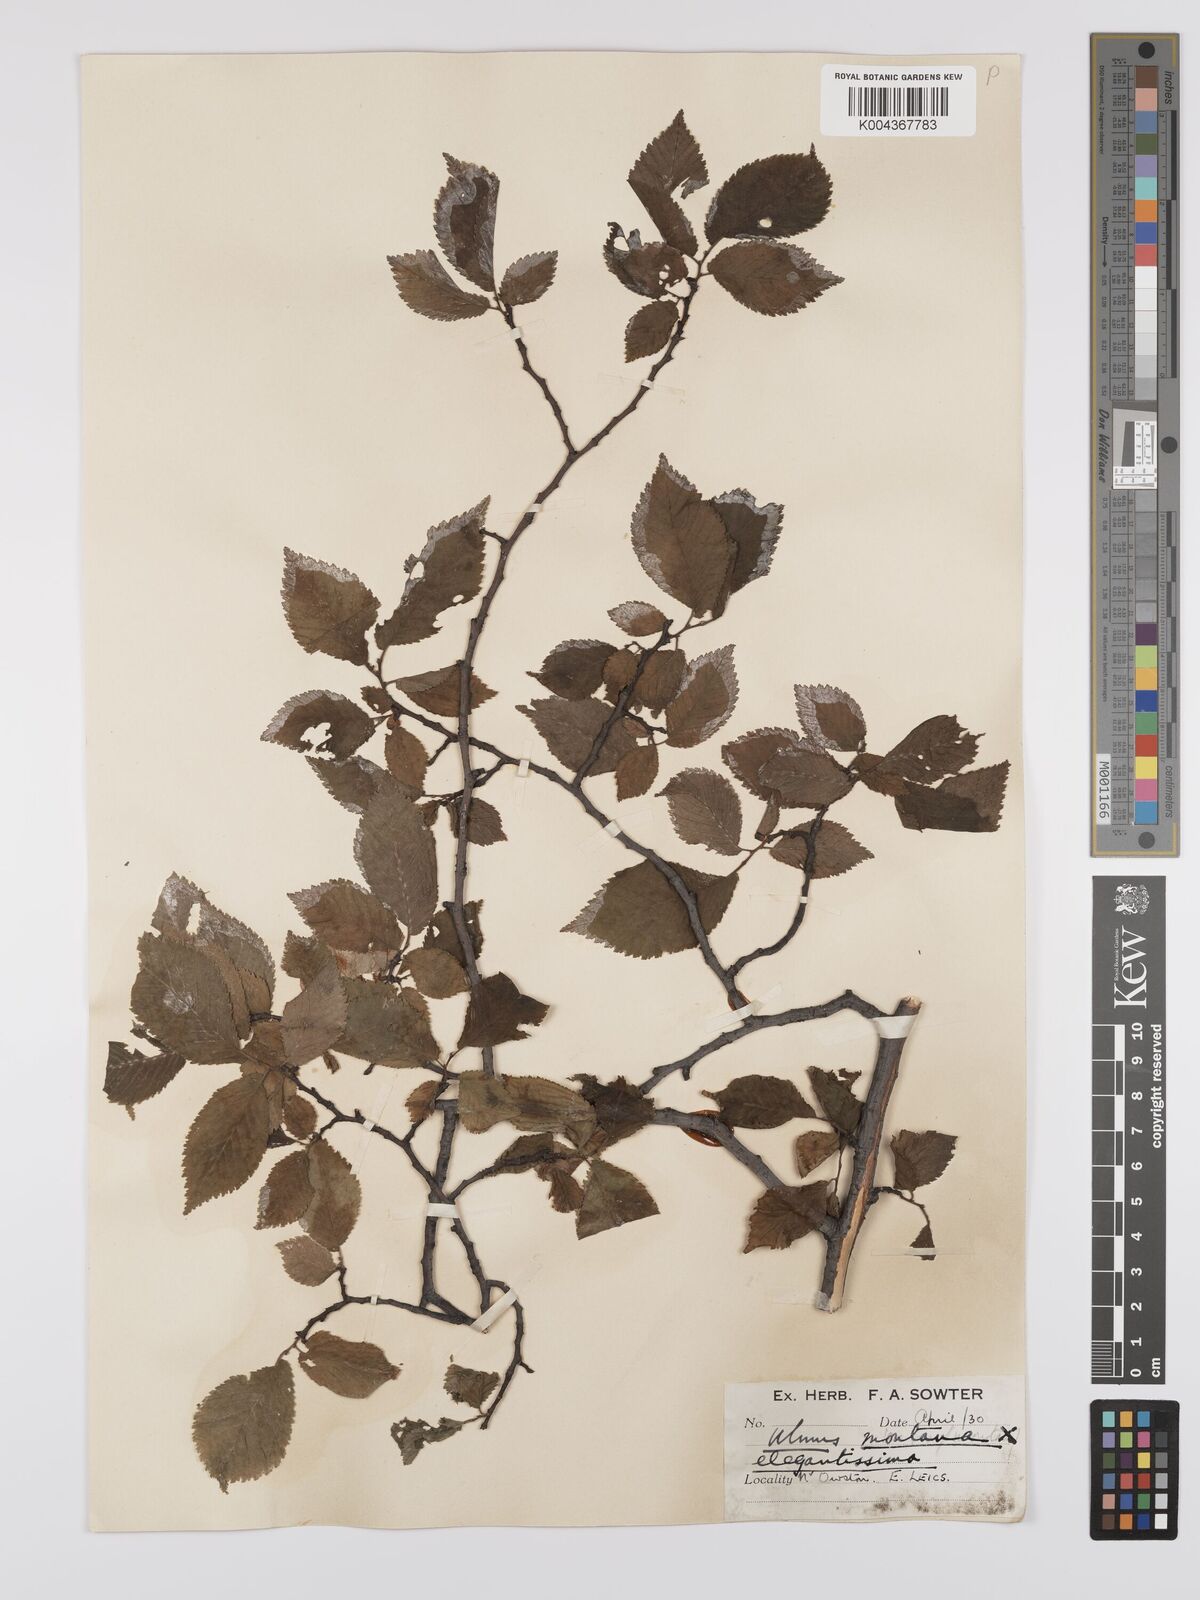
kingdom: Plantae
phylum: Tracheophyta
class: Magnoliopsida
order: Rosales
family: Ulmaceae
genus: Ulmus
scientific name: Ulmus
